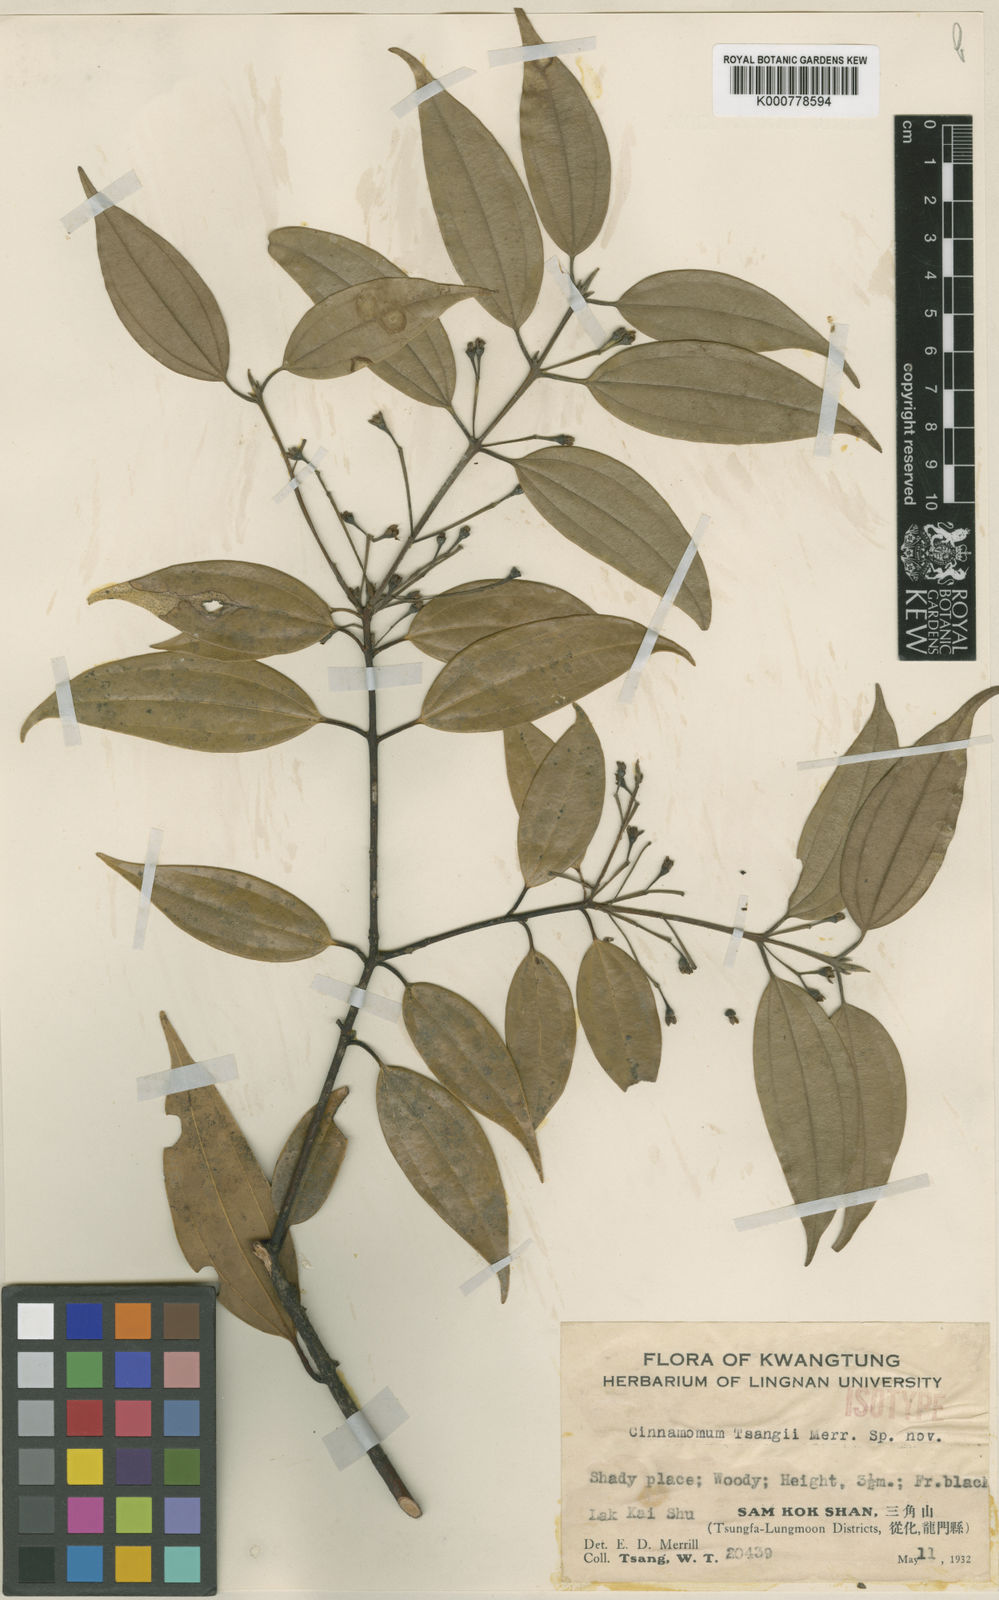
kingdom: Plantae
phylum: Tracheophyta
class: Magnoliopsida
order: Laurales
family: Lauraceae
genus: Cinnamomum
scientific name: Cinnamomum tsangii
